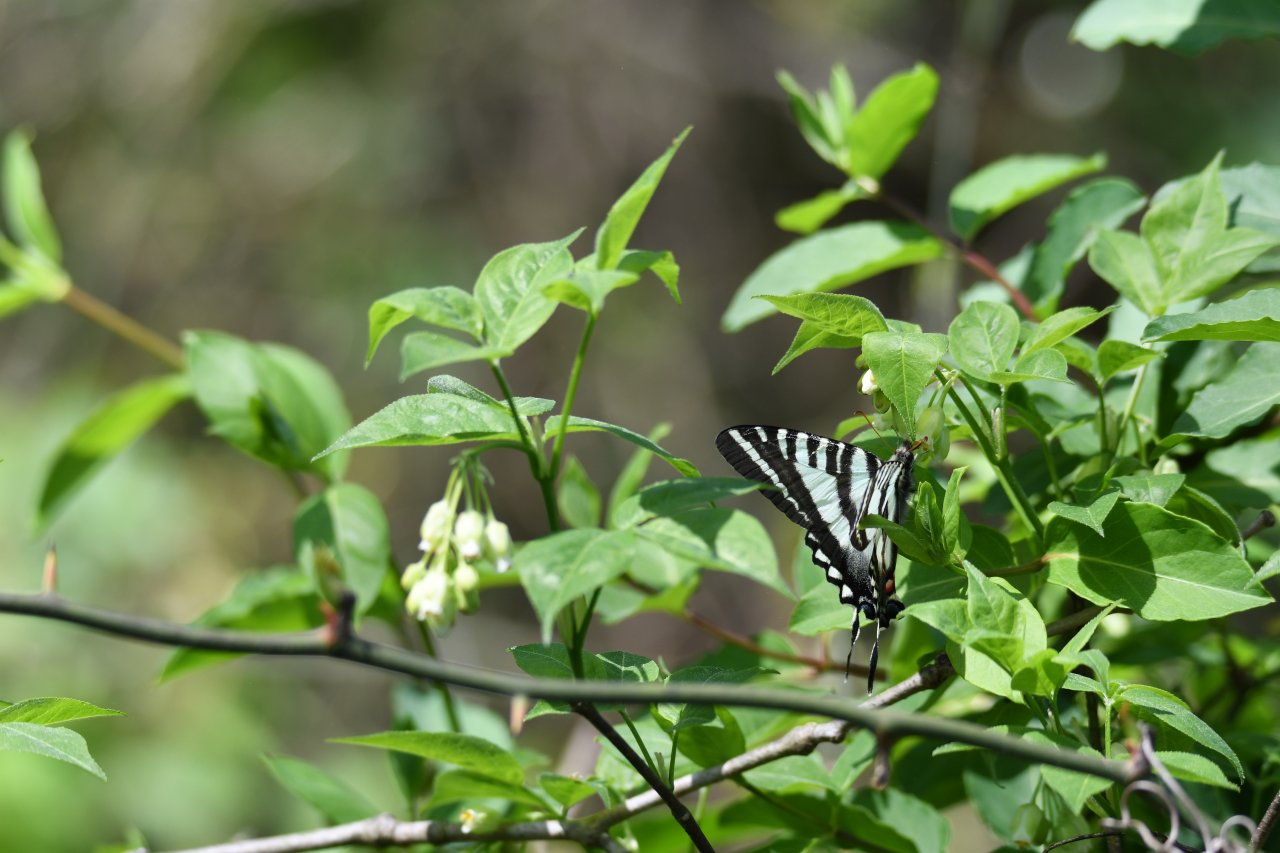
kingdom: Animalia
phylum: Arthropoda
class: Insecta
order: Lepidoptera
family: Papilionidae
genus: Protographium
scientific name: Protographium marcellus
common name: Zebra Swallowtail
